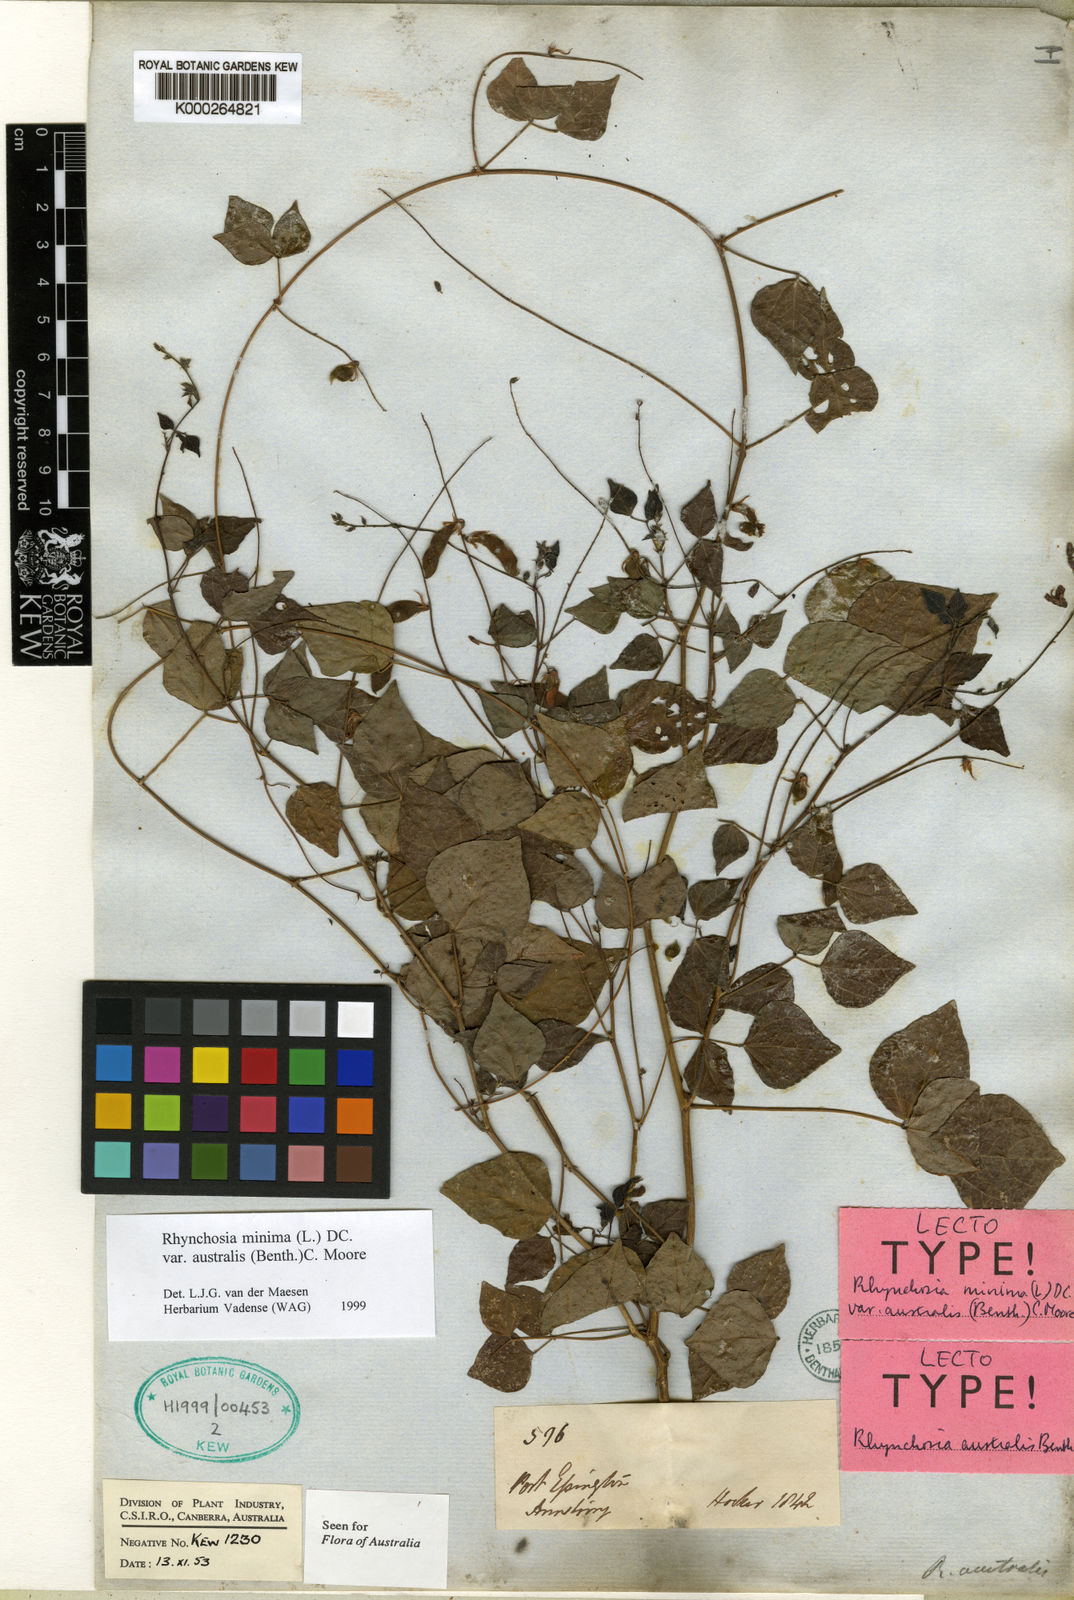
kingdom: Plantae
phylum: Tracheophyta
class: Magnoliopsida
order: Fabales
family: Fabaceae
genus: Rhynchosia
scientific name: Rhynchosia australis
